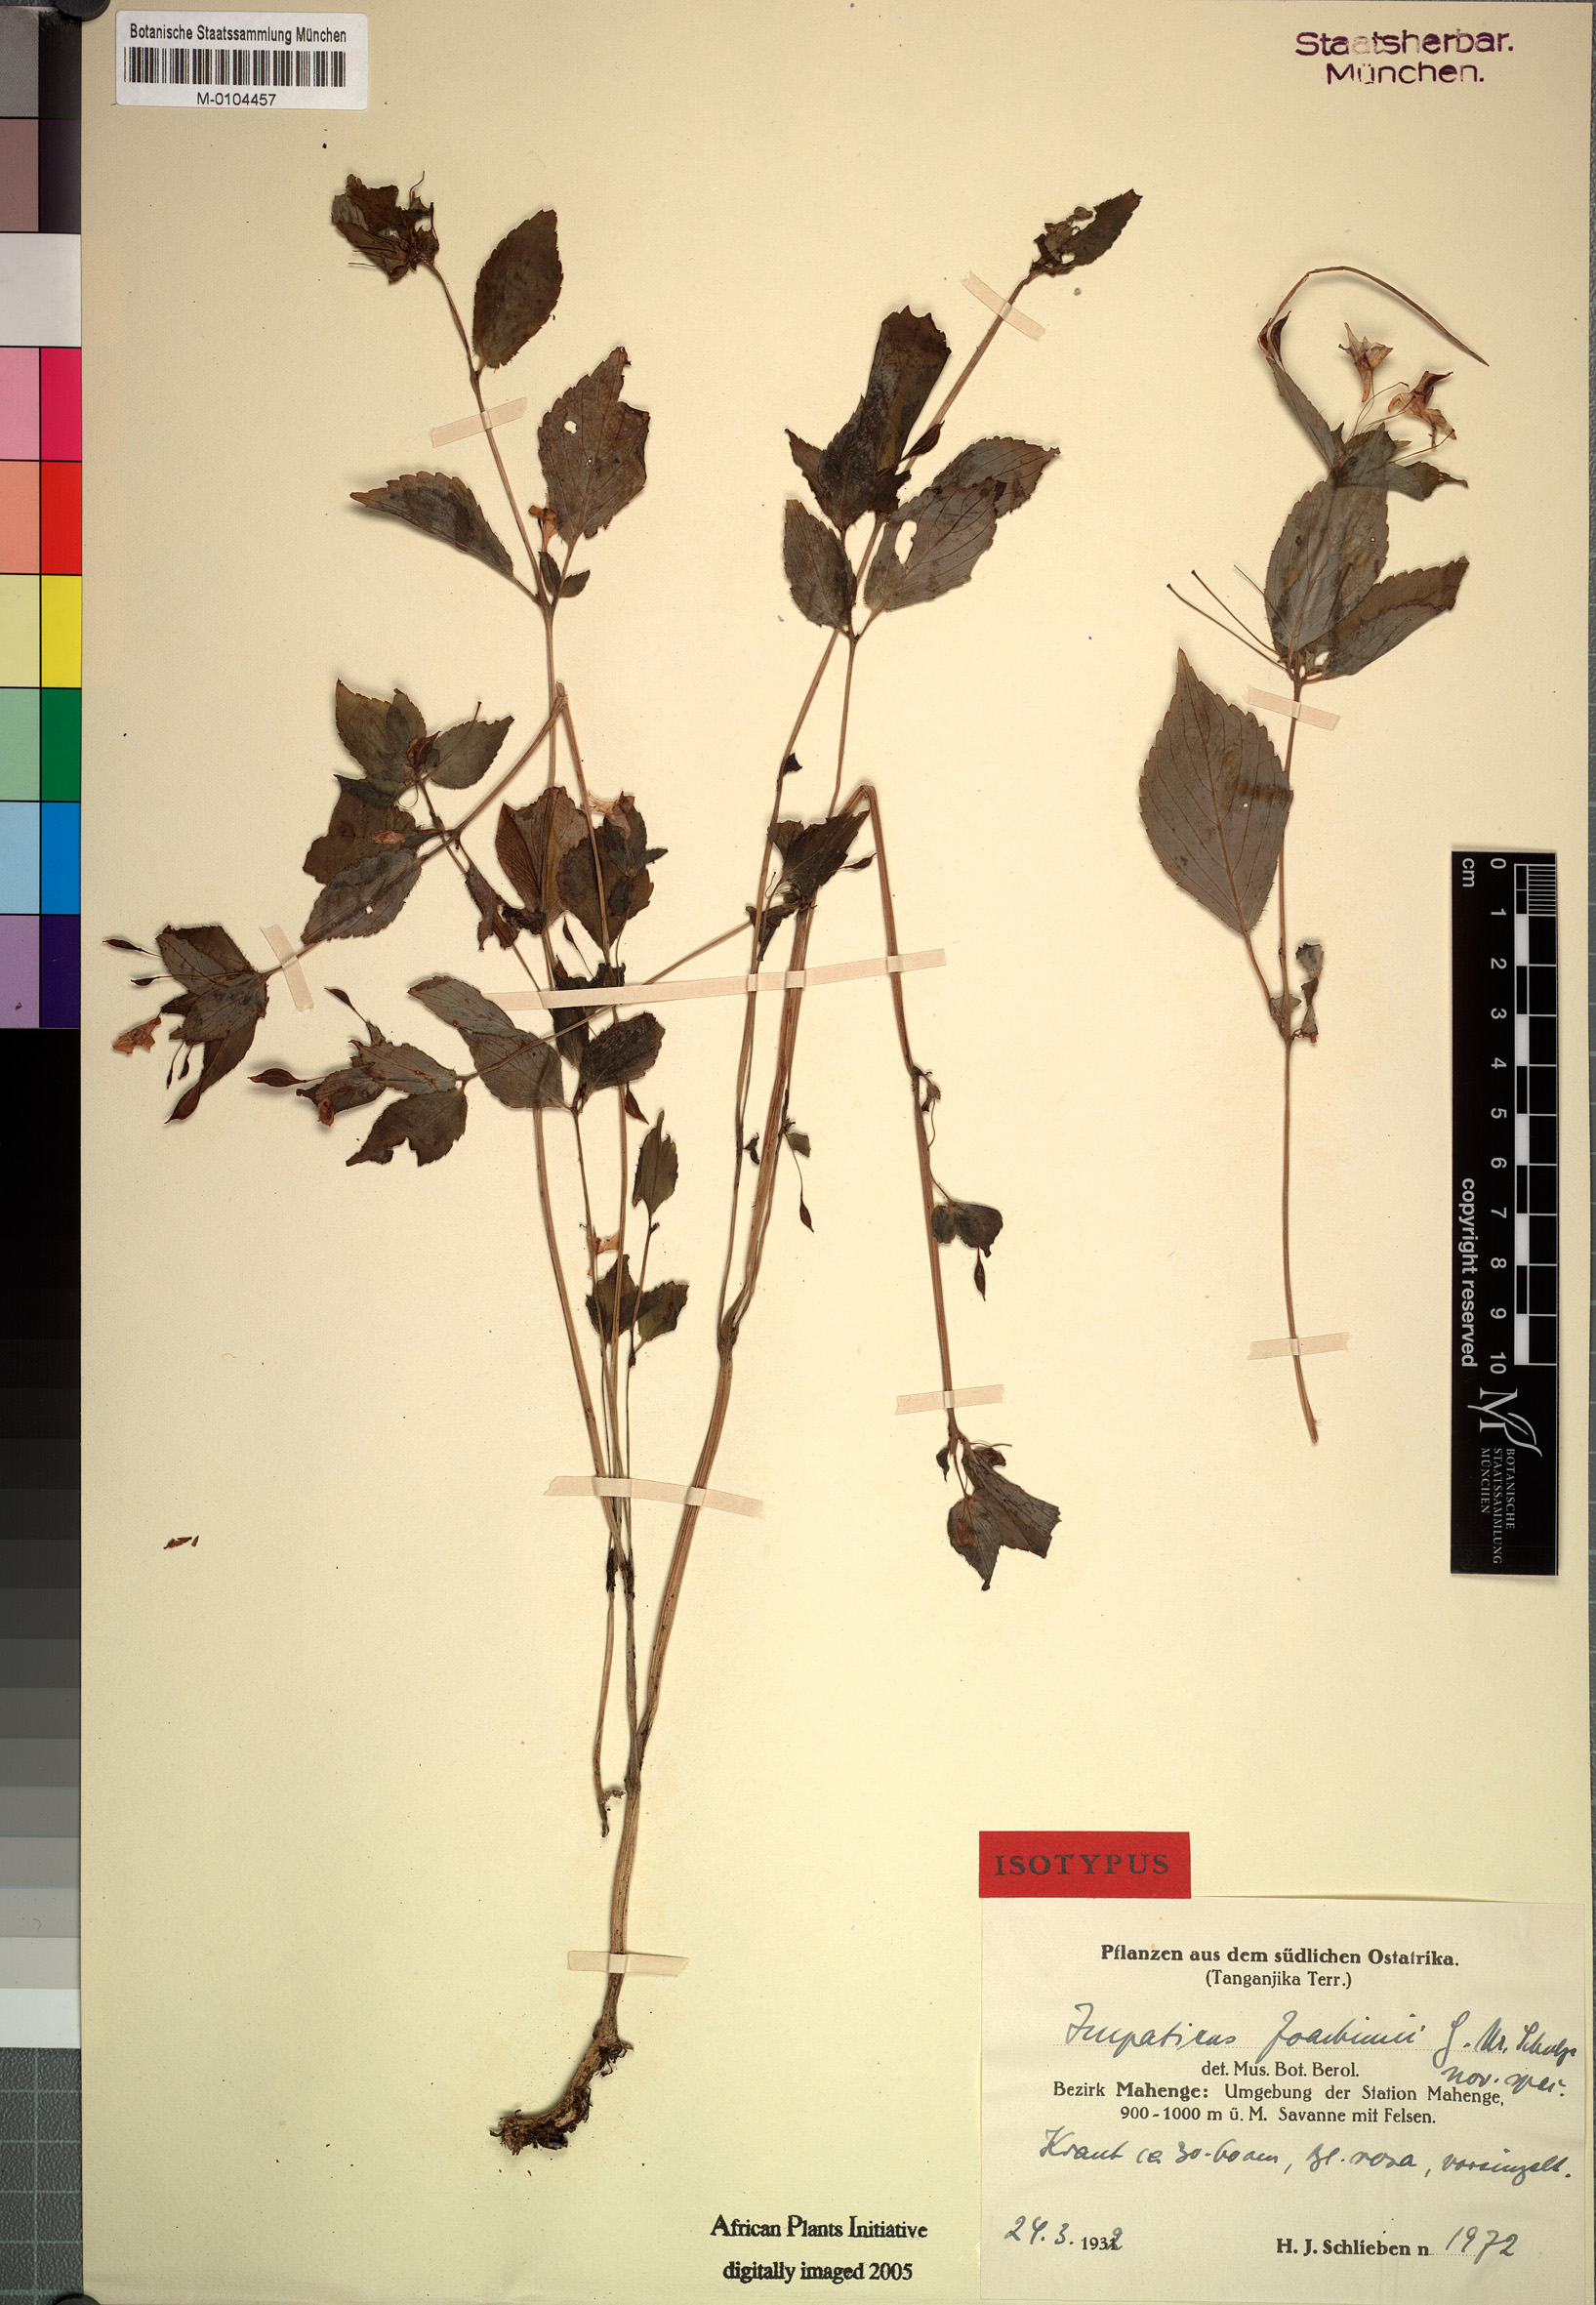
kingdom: Plantae
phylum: Tracheophyta
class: Magnoliopsida
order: Ericales
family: Balsaminaceae
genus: Impatiens
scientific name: Impatiens joachimii
